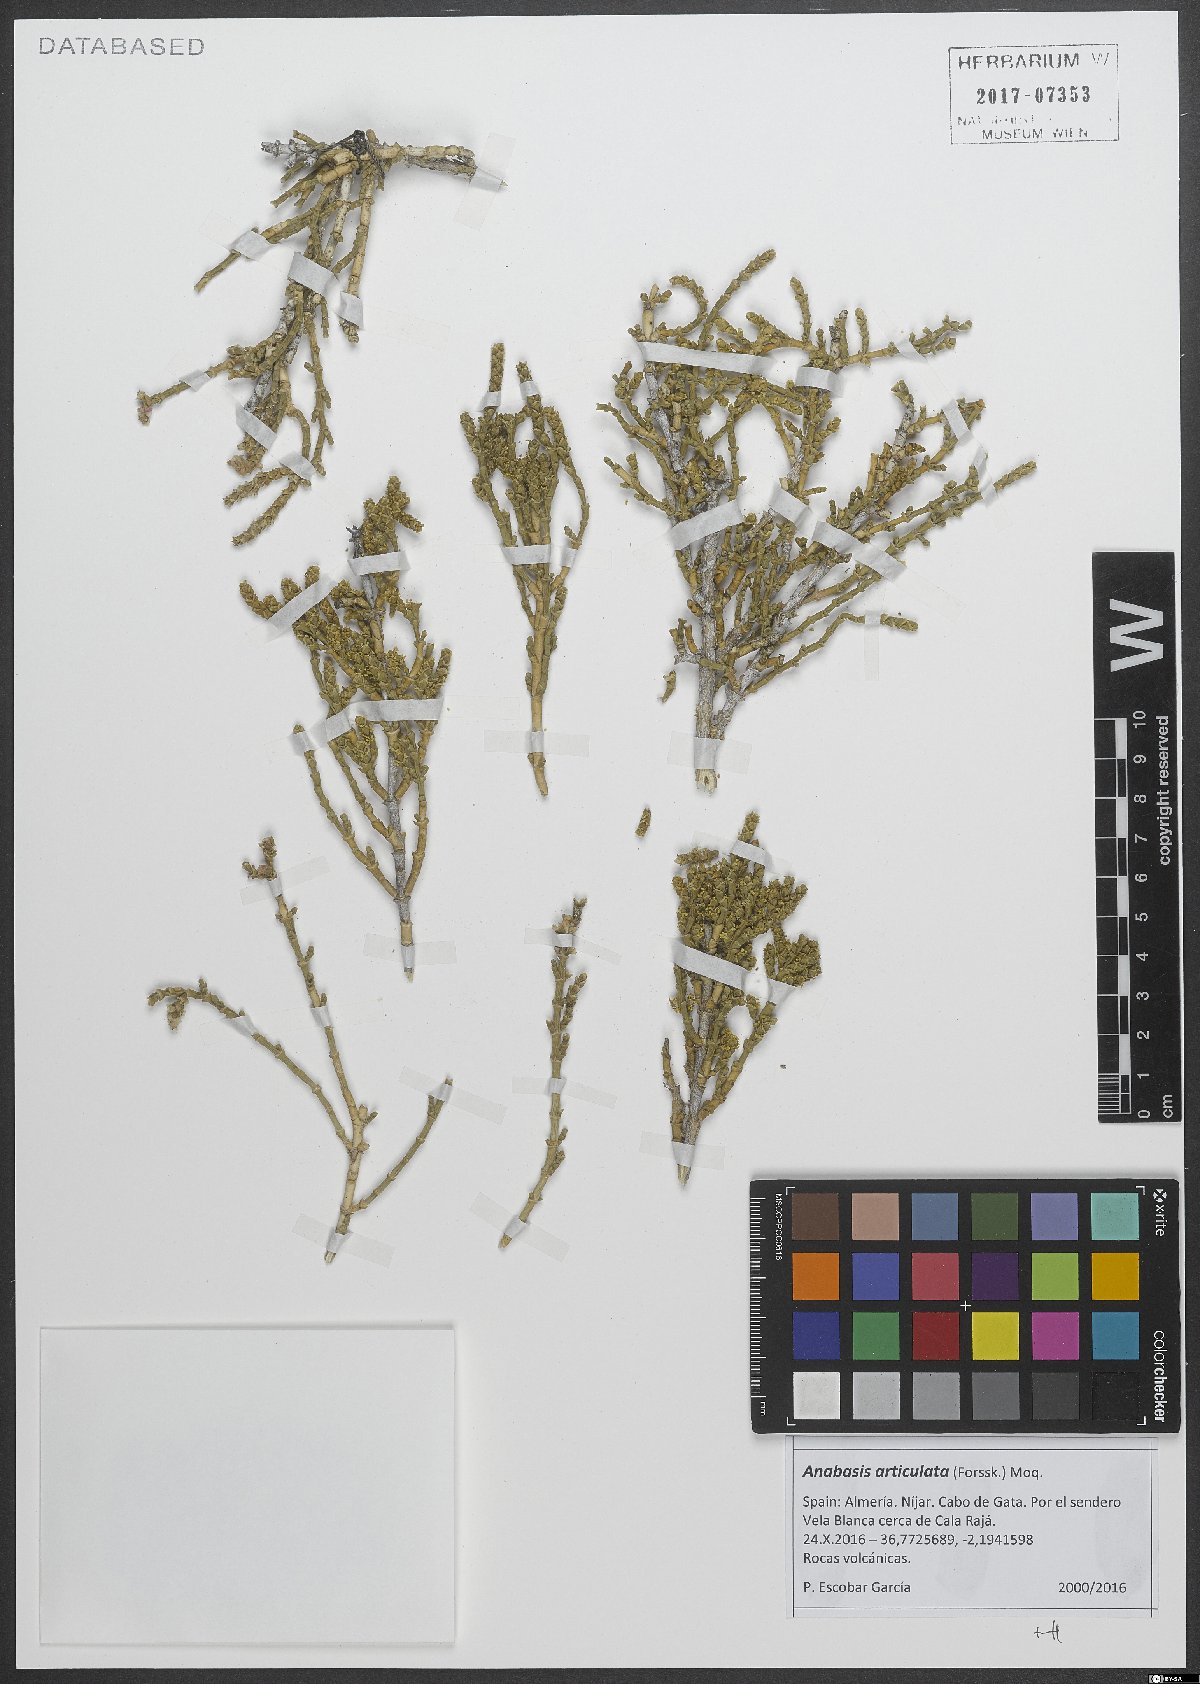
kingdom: Plantae
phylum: Tracheophyta
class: Magnoliopsida
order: Caryophyllales
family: Amaranthaceae
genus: Anabasis
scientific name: Anabasis articulata
